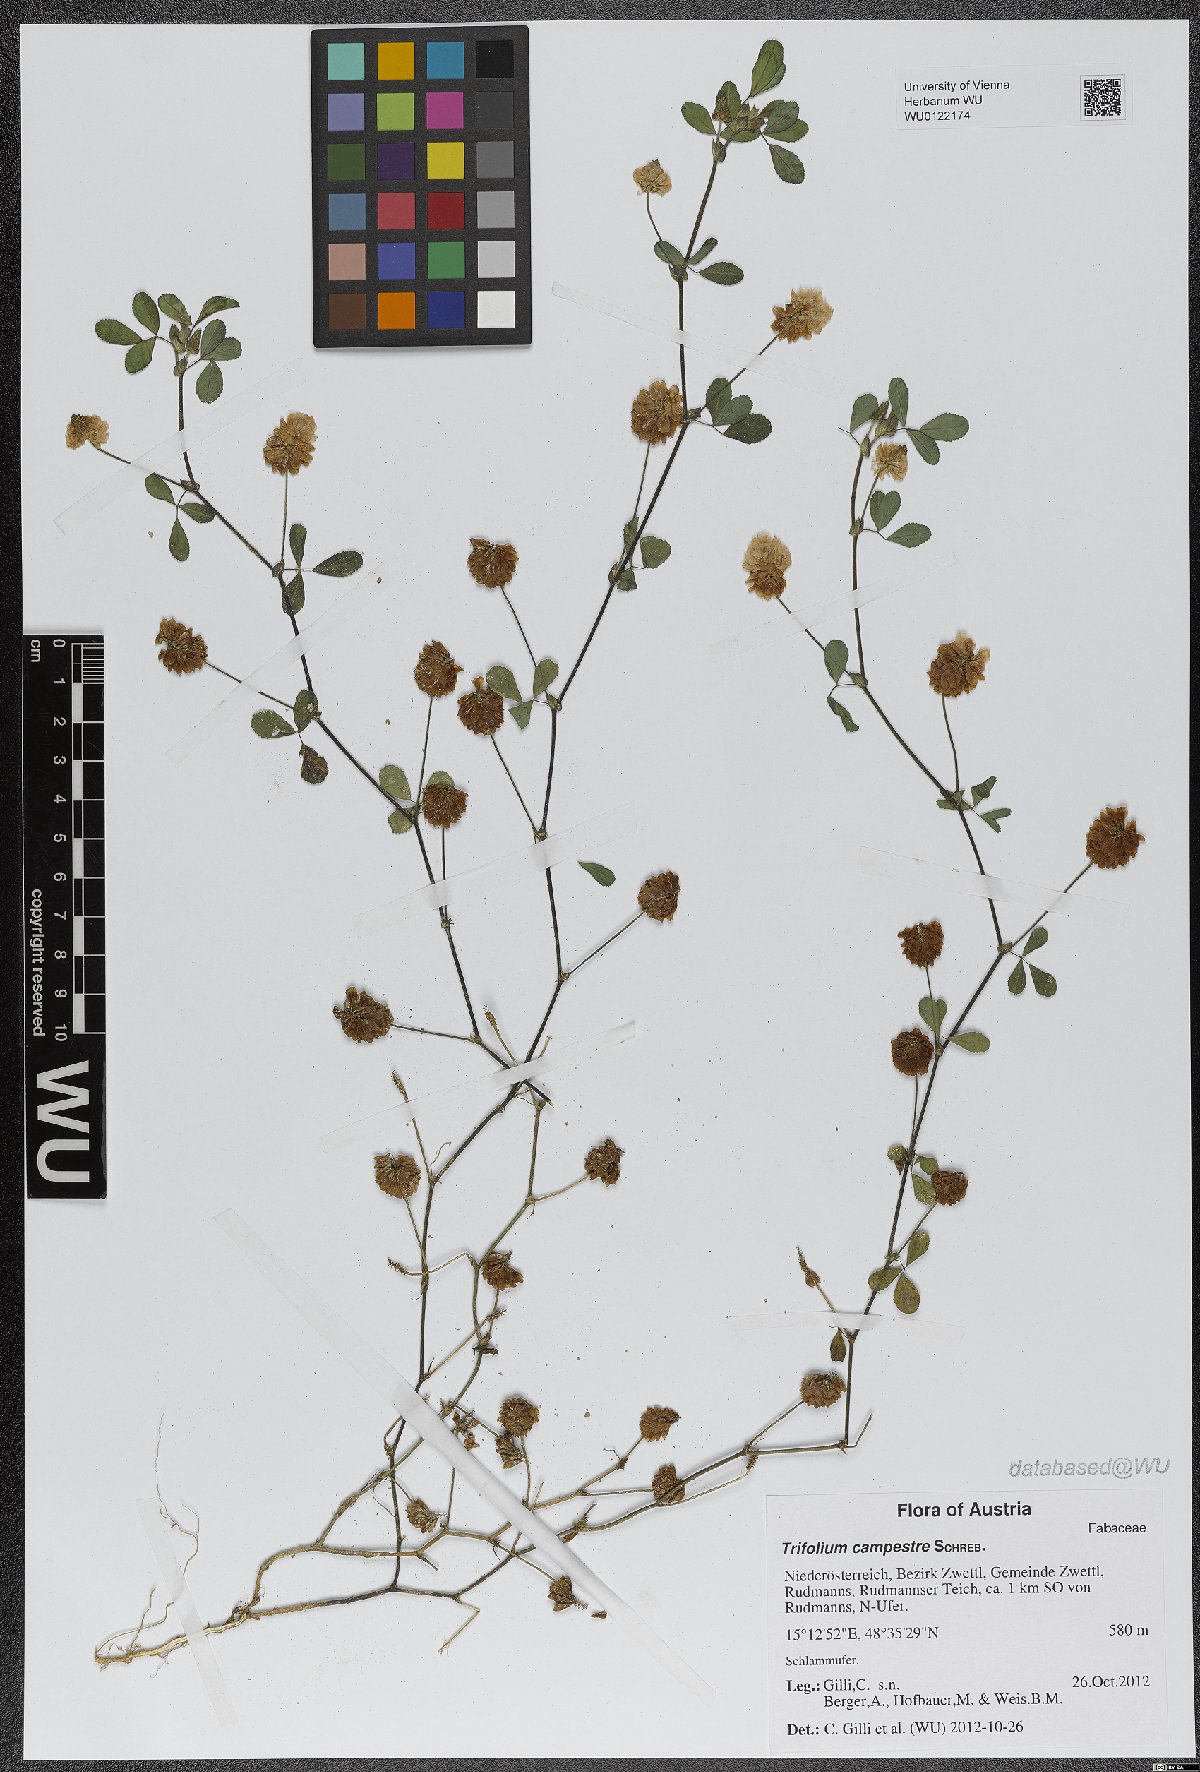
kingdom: Plantae
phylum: Tracheophyta
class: Magnoliopsida
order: Fabales
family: Fabaceae
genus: Trifolium
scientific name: Trifolium campestre
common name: Field clover
